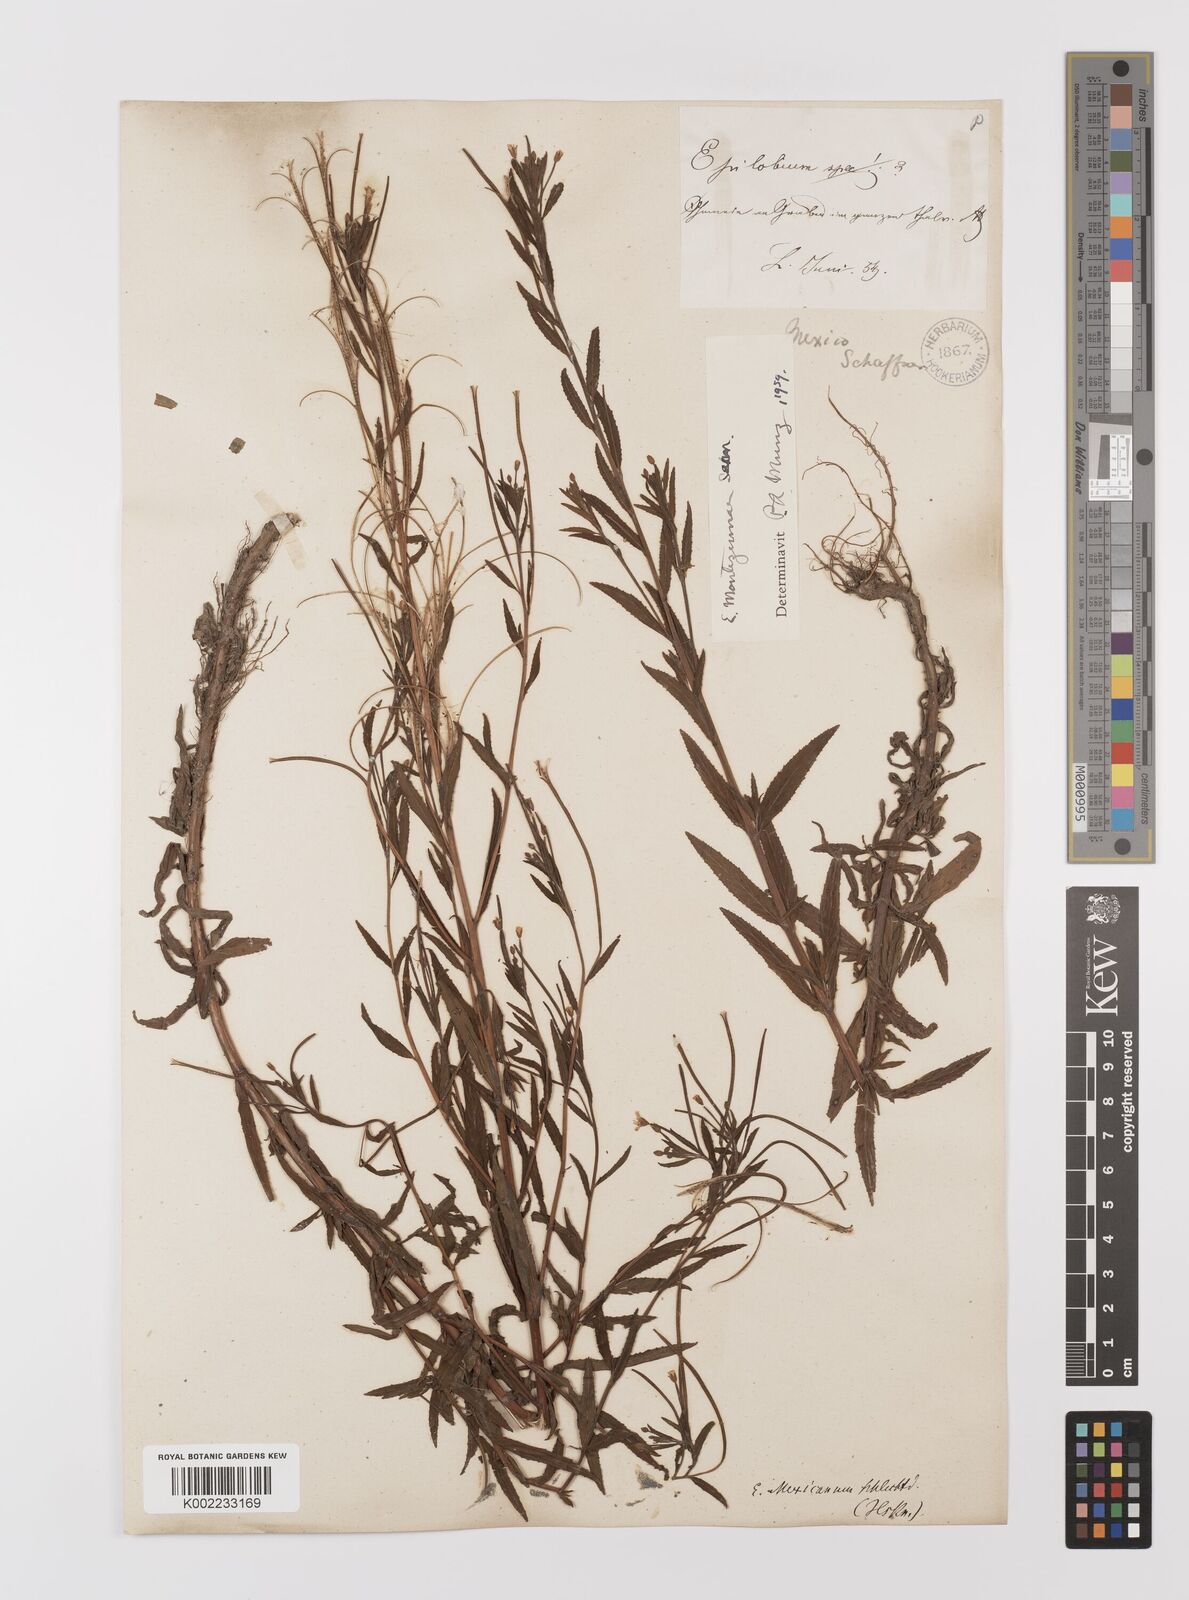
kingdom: Plantae
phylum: Tracheophyta
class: Magnoliopsida
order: Myrtales
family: Onagraceae
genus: Epilobium
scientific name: Epilobium
